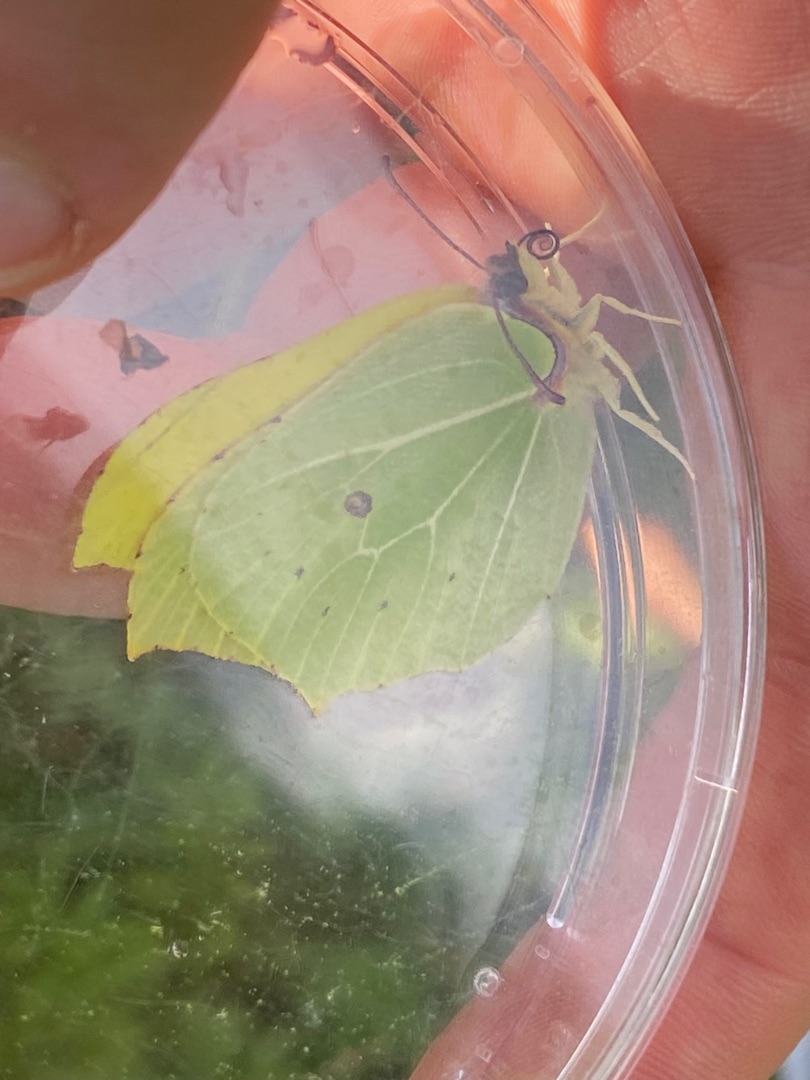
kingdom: Animalia
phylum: Arthropoda
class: Insecta
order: Lepidoptera
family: Pieridae
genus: Gonepteryx
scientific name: Gonepteryx rhamni
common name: Citronsommerfugl
